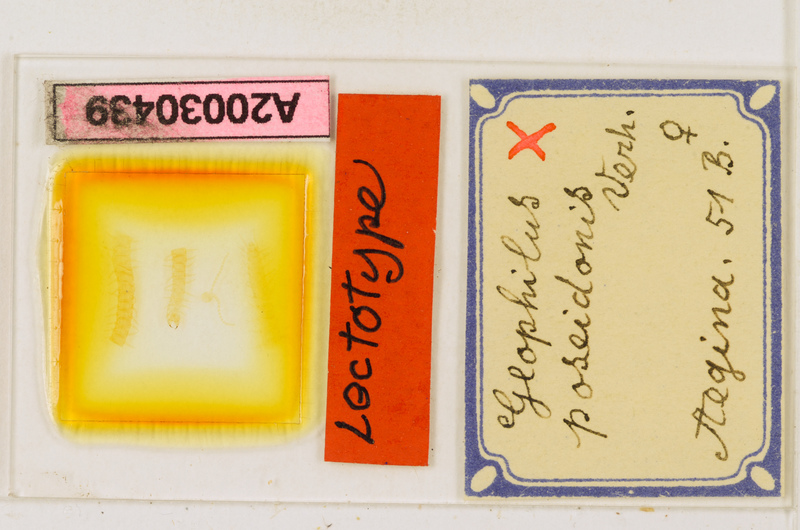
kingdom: Animalia
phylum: Arthropoda
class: Chilopoda
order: Geophilomorpha
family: Geophilidae
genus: Tuoba
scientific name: Tuoba poseidonis
